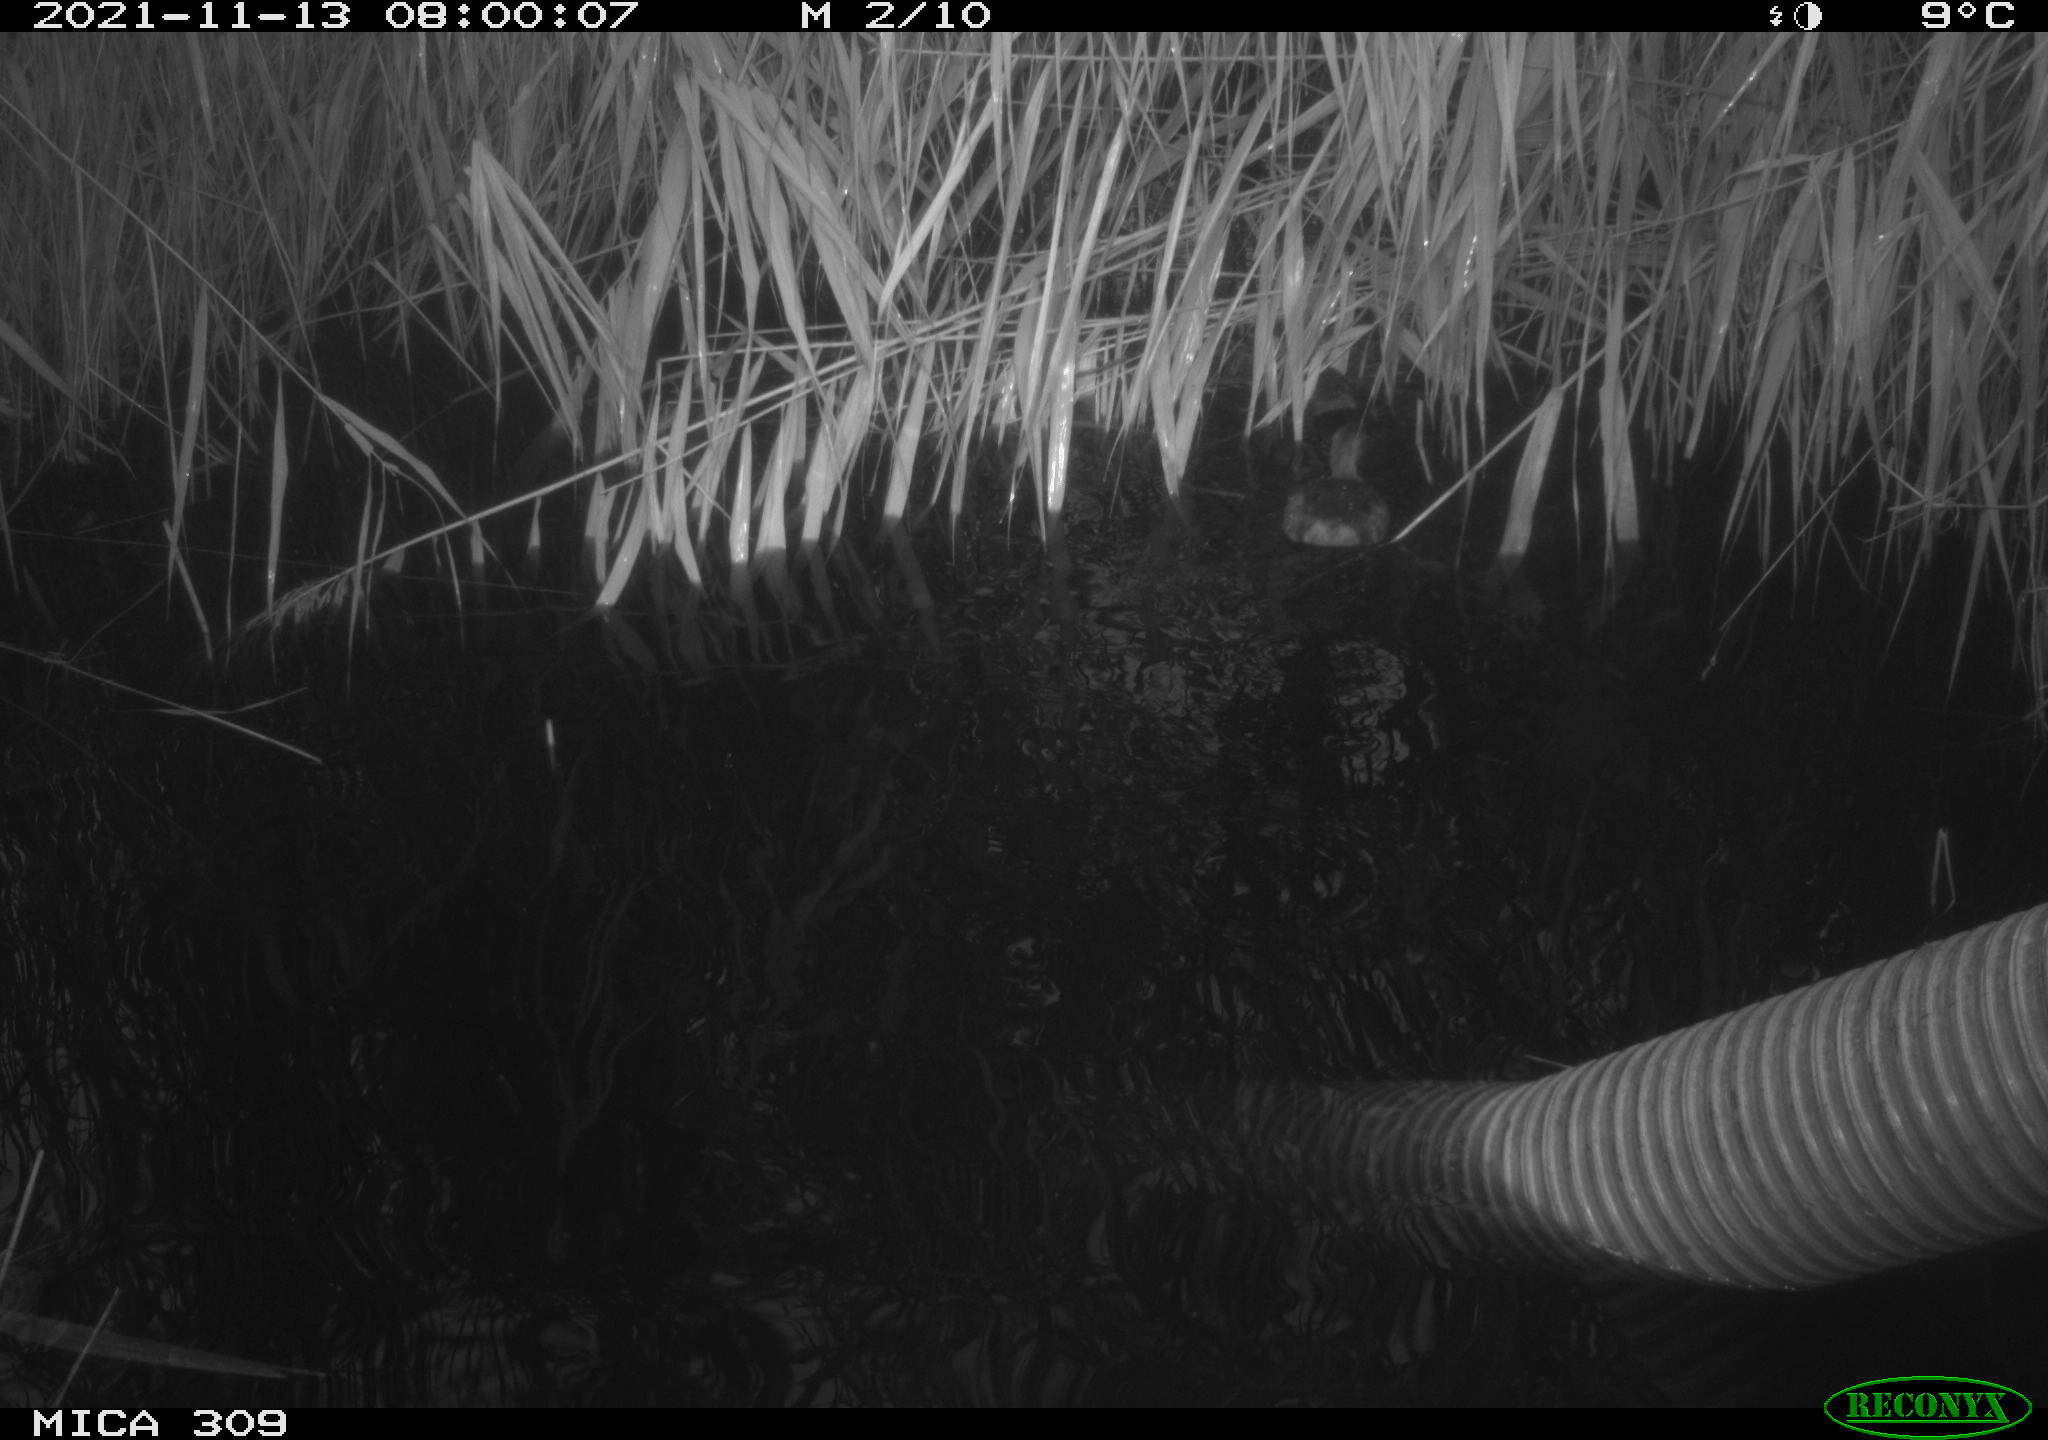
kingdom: Animalia
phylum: Chordata
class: Aves
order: Gruiformes
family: Rallidae
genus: Rallus
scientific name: Rallus aquaticus
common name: Water rail
